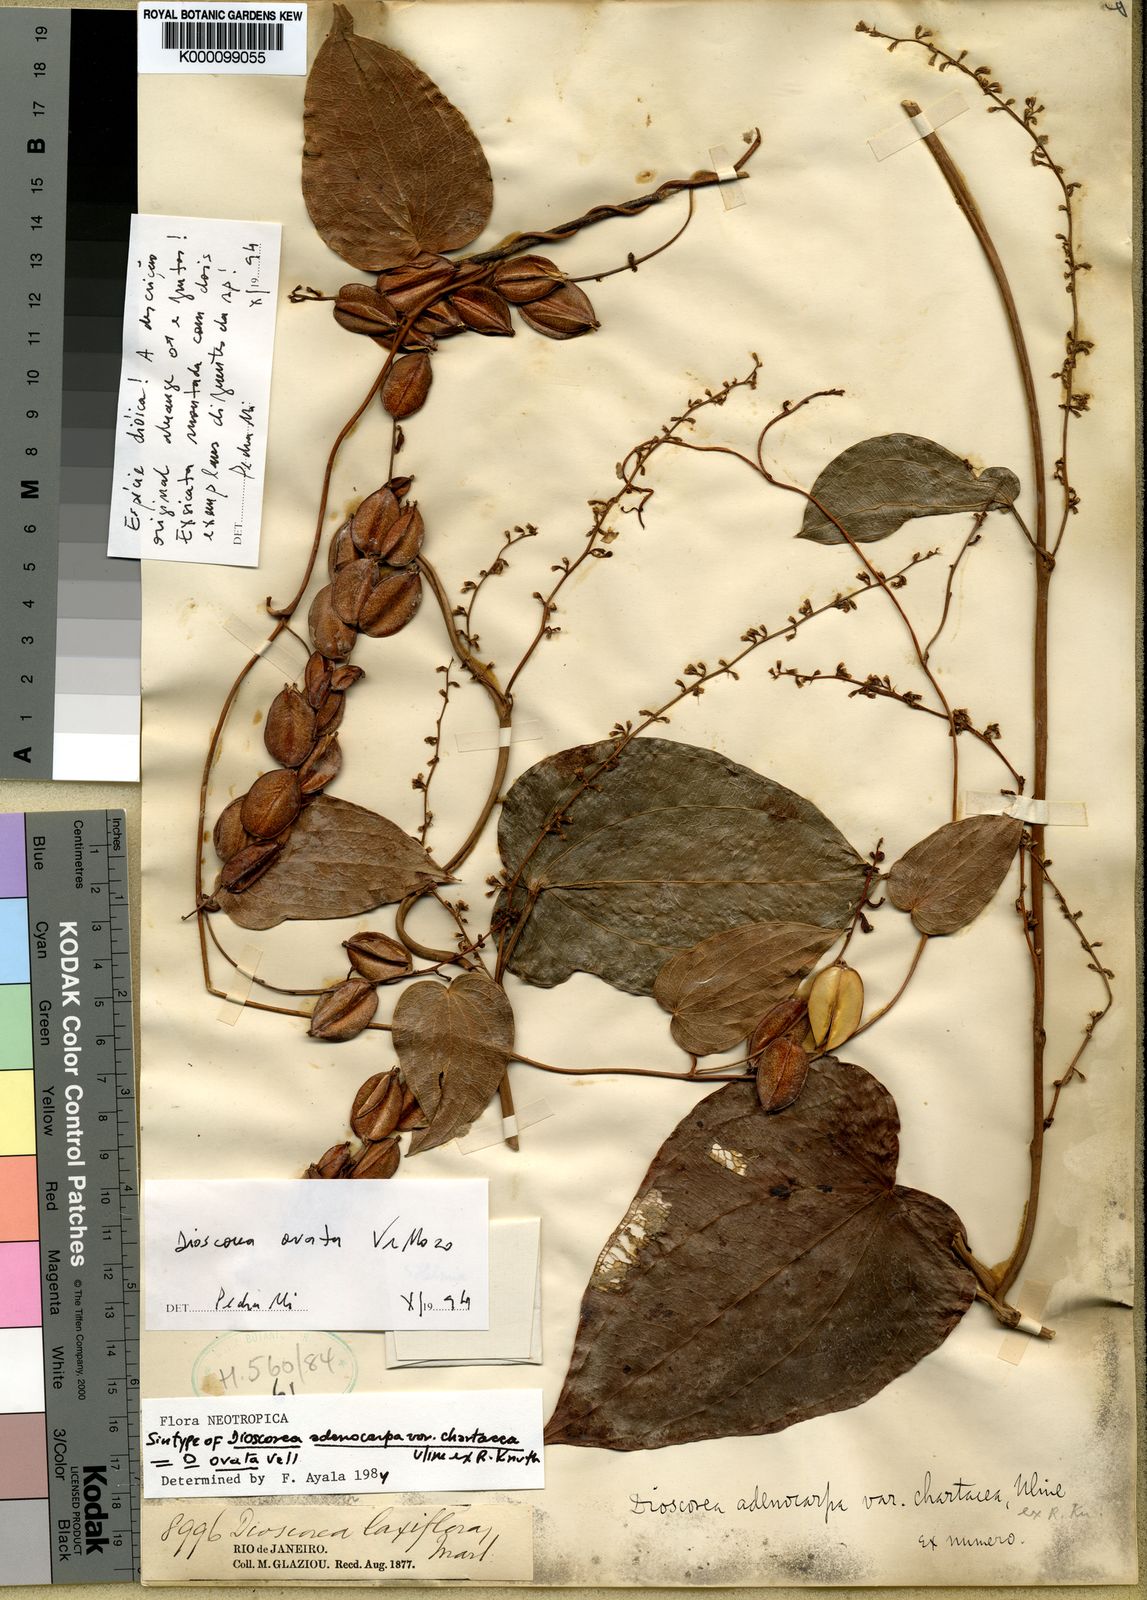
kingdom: Plantae
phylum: Tracheophyta
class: Liliopsida
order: Dioscoreales
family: Dioscoreaceae
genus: Dioscorea
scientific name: Dioscorea ovata
